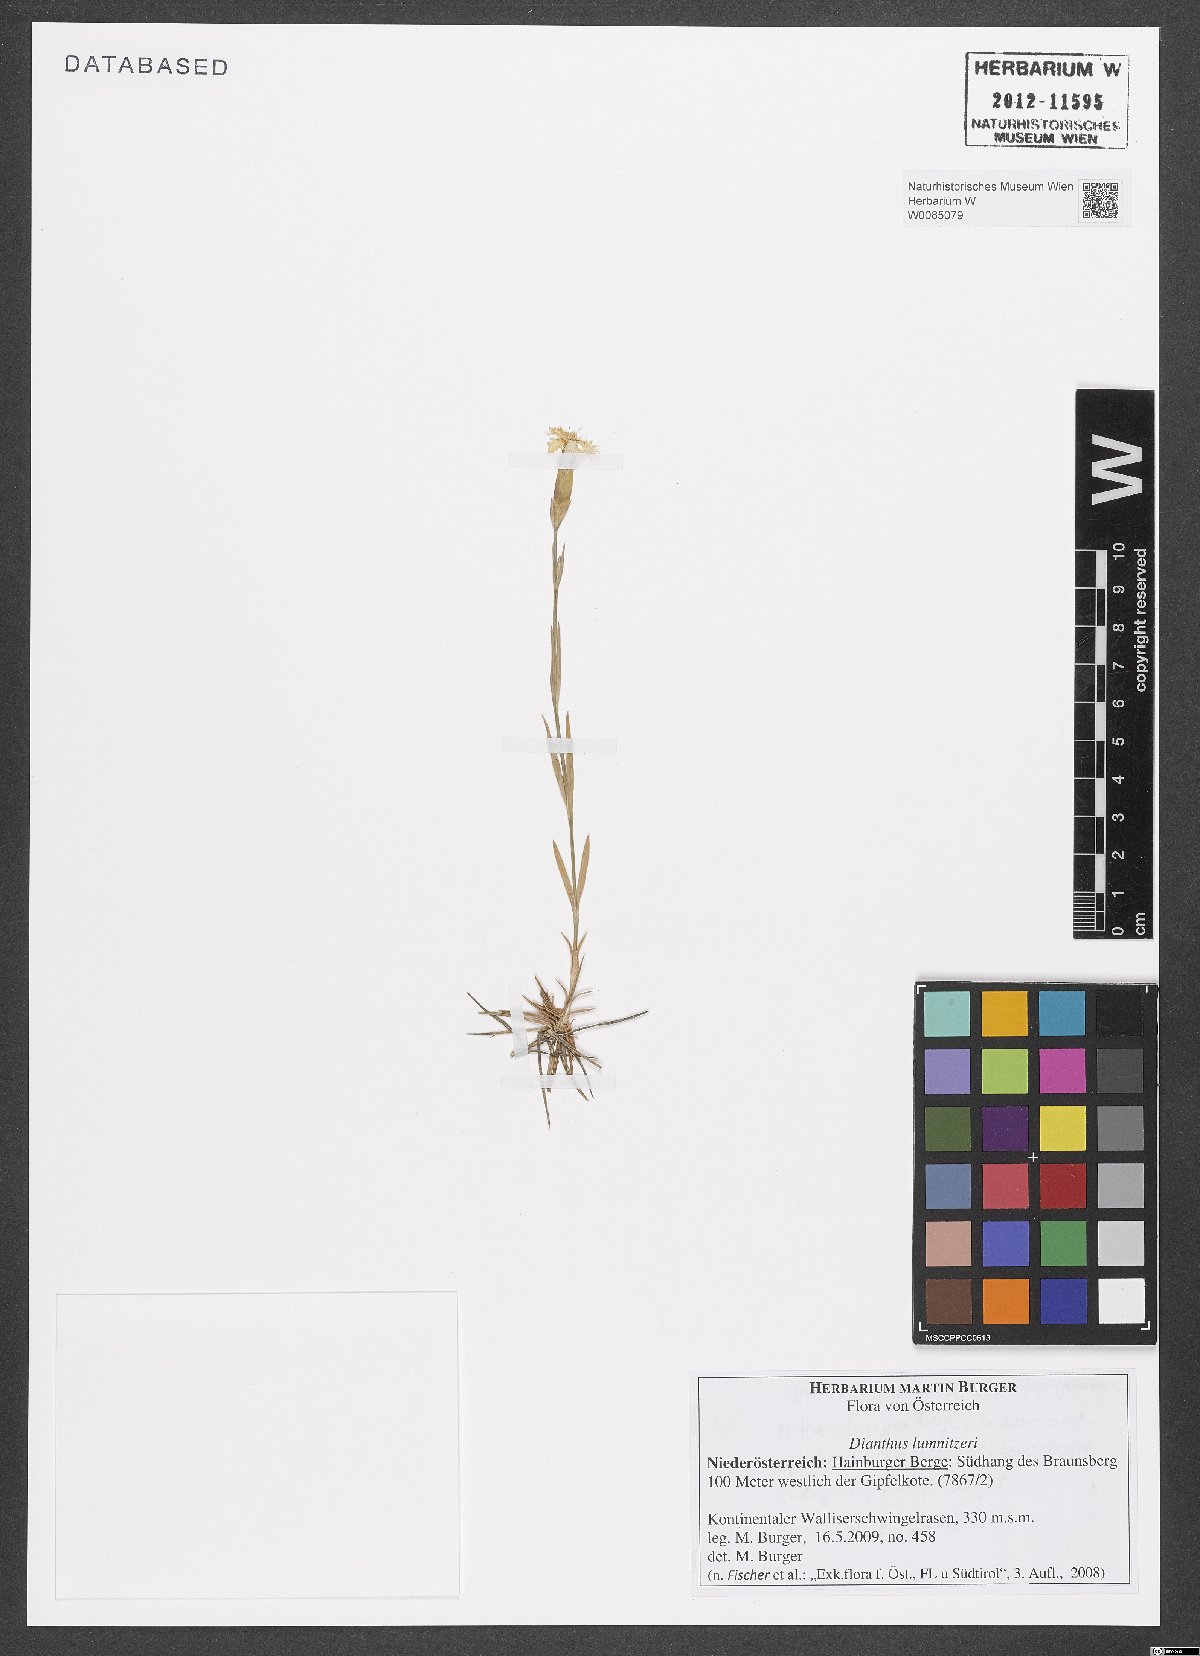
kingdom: Plantae
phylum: Tracheophyta
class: Magnoliopsida
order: Caryophyllales
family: Caryophyllaceae
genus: Dianthus
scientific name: Dianthus praecox
